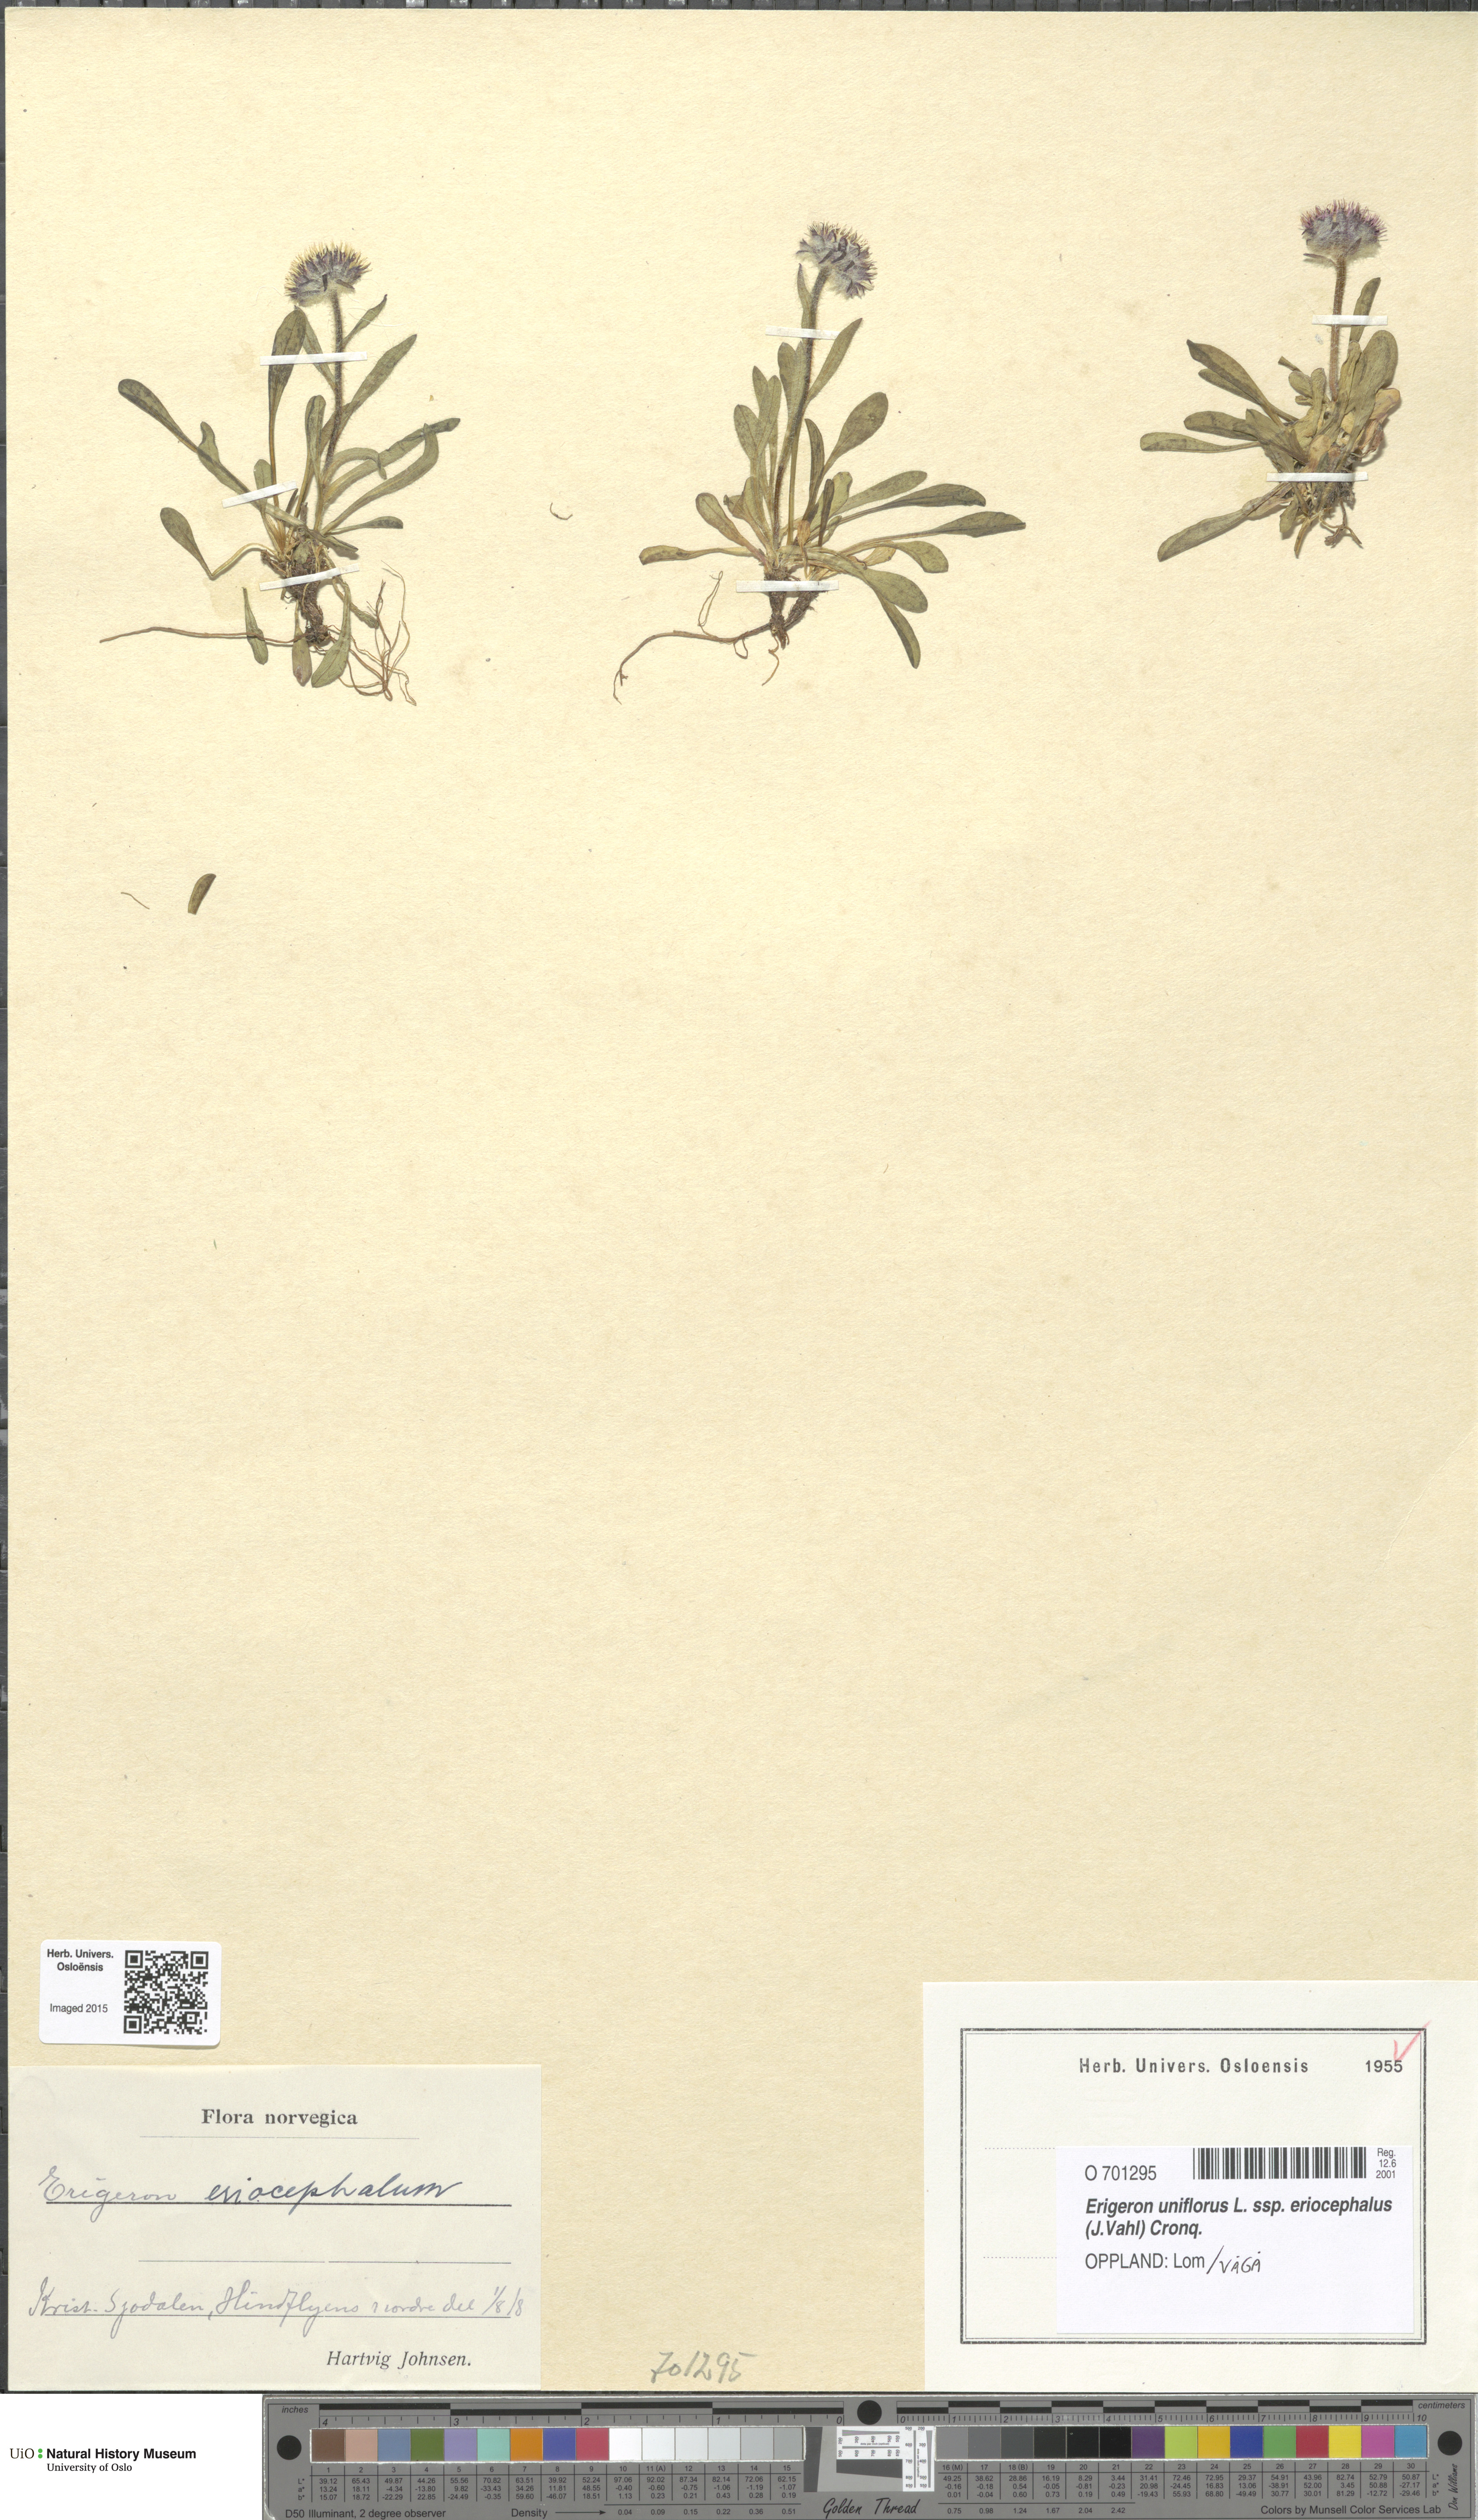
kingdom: Plantae
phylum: Tracheophyta
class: Magnoliopsida
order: Asterales
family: Asteraceae
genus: Erigeron
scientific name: Erigeron eriocephalus
